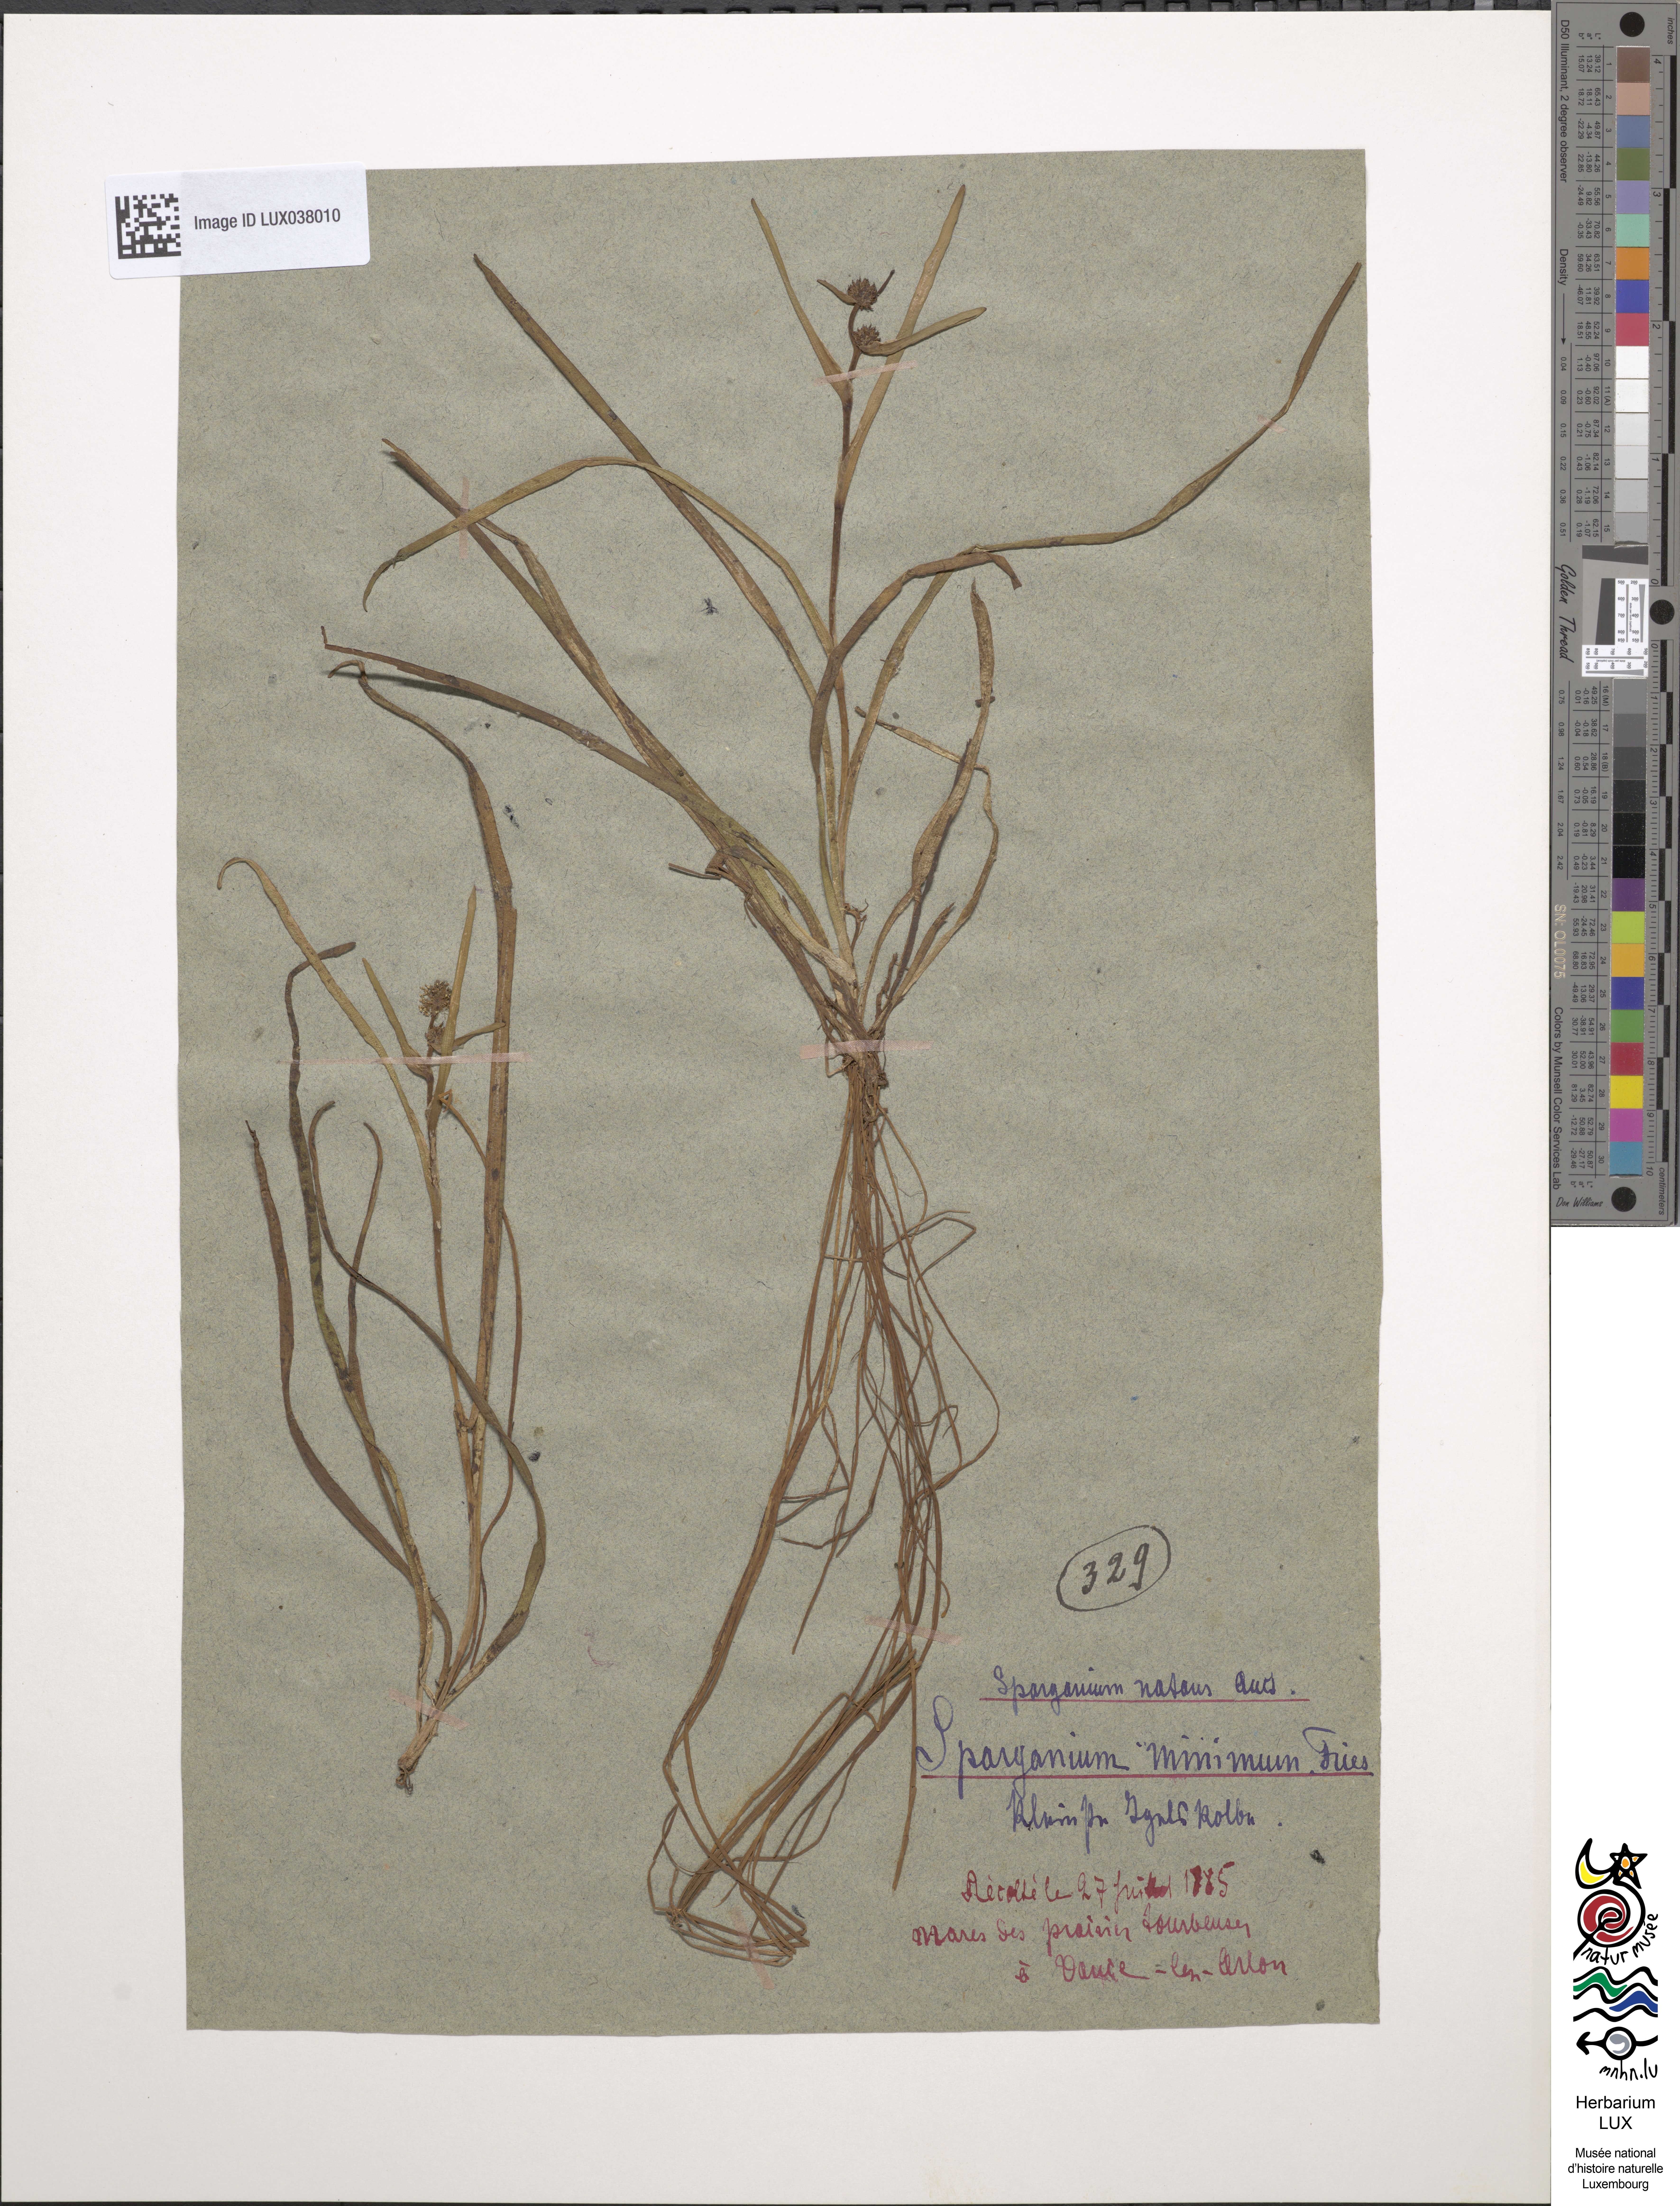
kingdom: Plantae
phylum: Tracheophyta
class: Liliopsida
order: Poales
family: Typhaceae
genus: Sparganium
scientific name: Sparganium natans
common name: Least bur-reed
